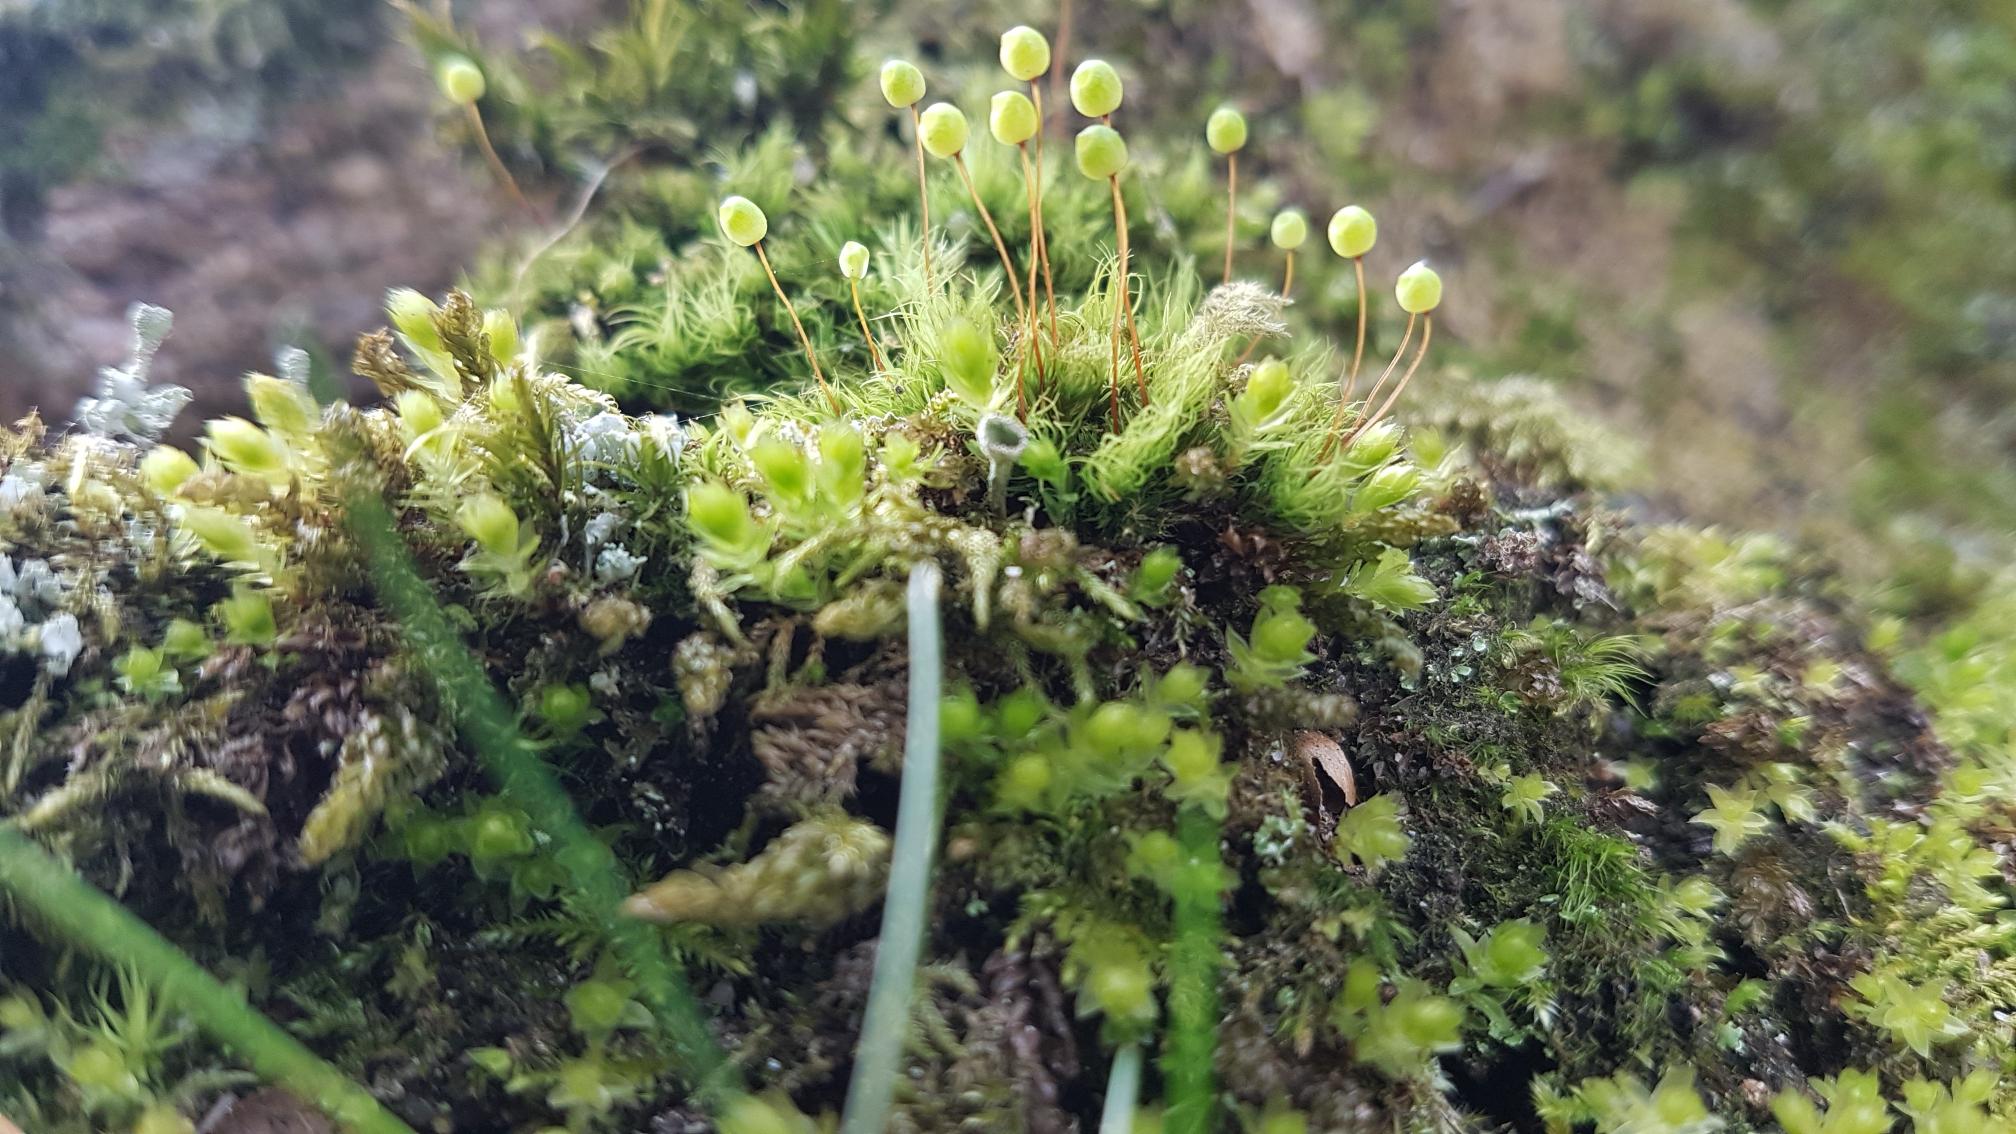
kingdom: Plantae
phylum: Bryophyta
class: Bryopsida
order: Bartramiales
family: Bartramiaceae
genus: Bartramia
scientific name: Bartramia pomiformis
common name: Gulgrøn kuglekapsel
